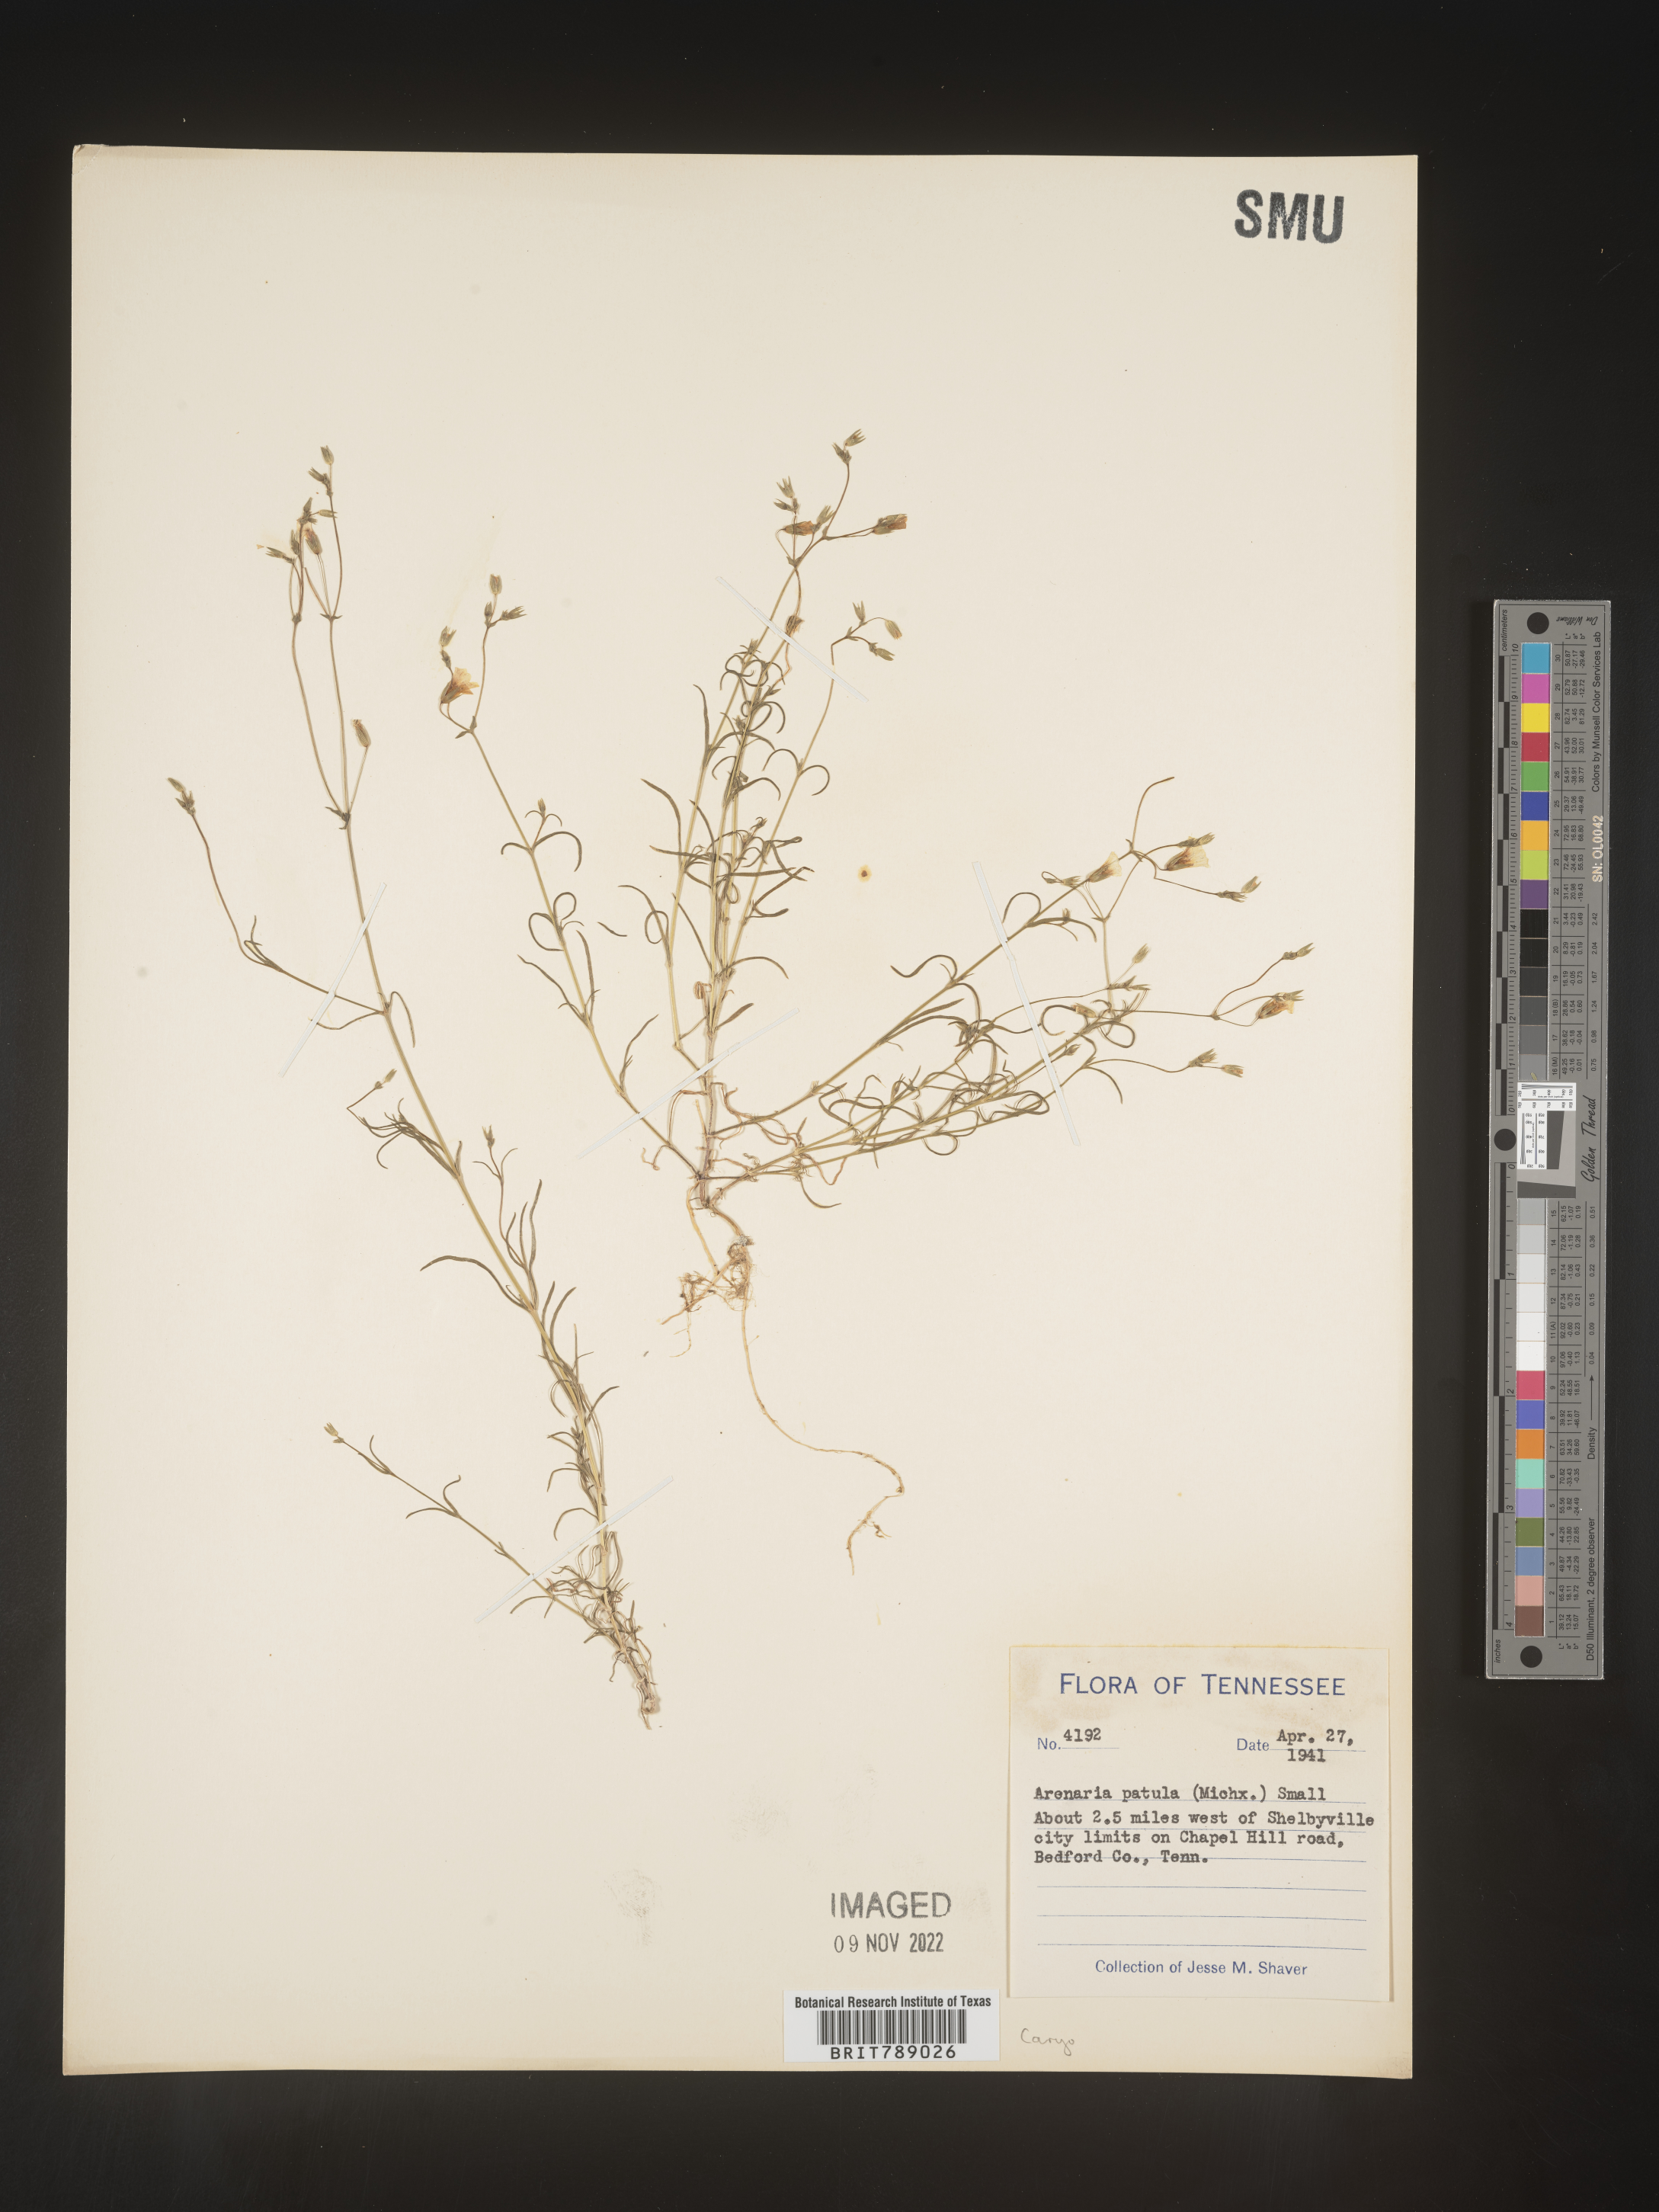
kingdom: Plantae
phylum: Tracheophyta
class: Magnoliopsida
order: Caryophyllales
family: Caryophyllaceae
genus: Mononeuria
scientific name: Mononeuria patula
